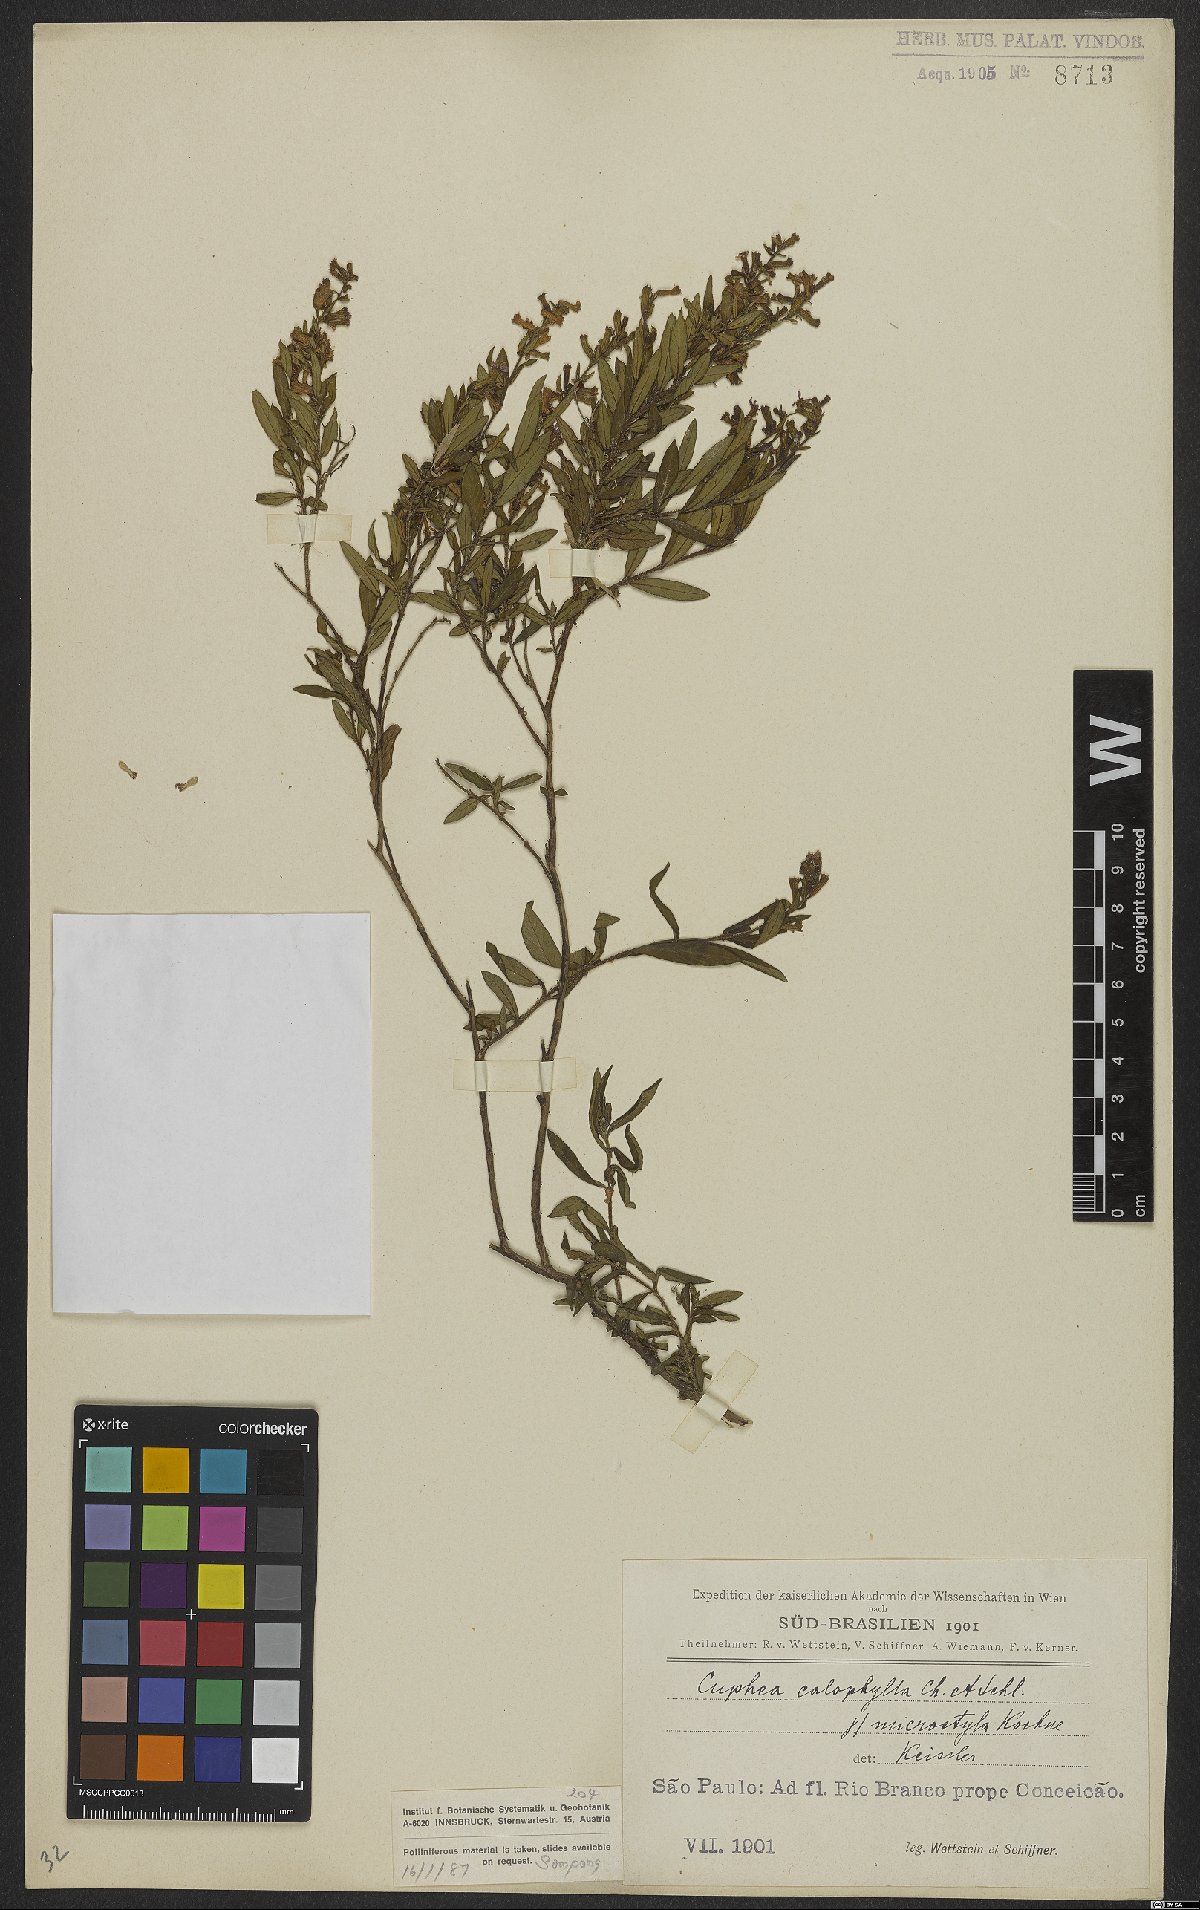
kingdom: Plantae
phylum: Tracheophyta
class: Magnoliopsida
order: Myrtales
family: Lythraceae
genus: Cuphea
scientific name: Cuphea calophylla
